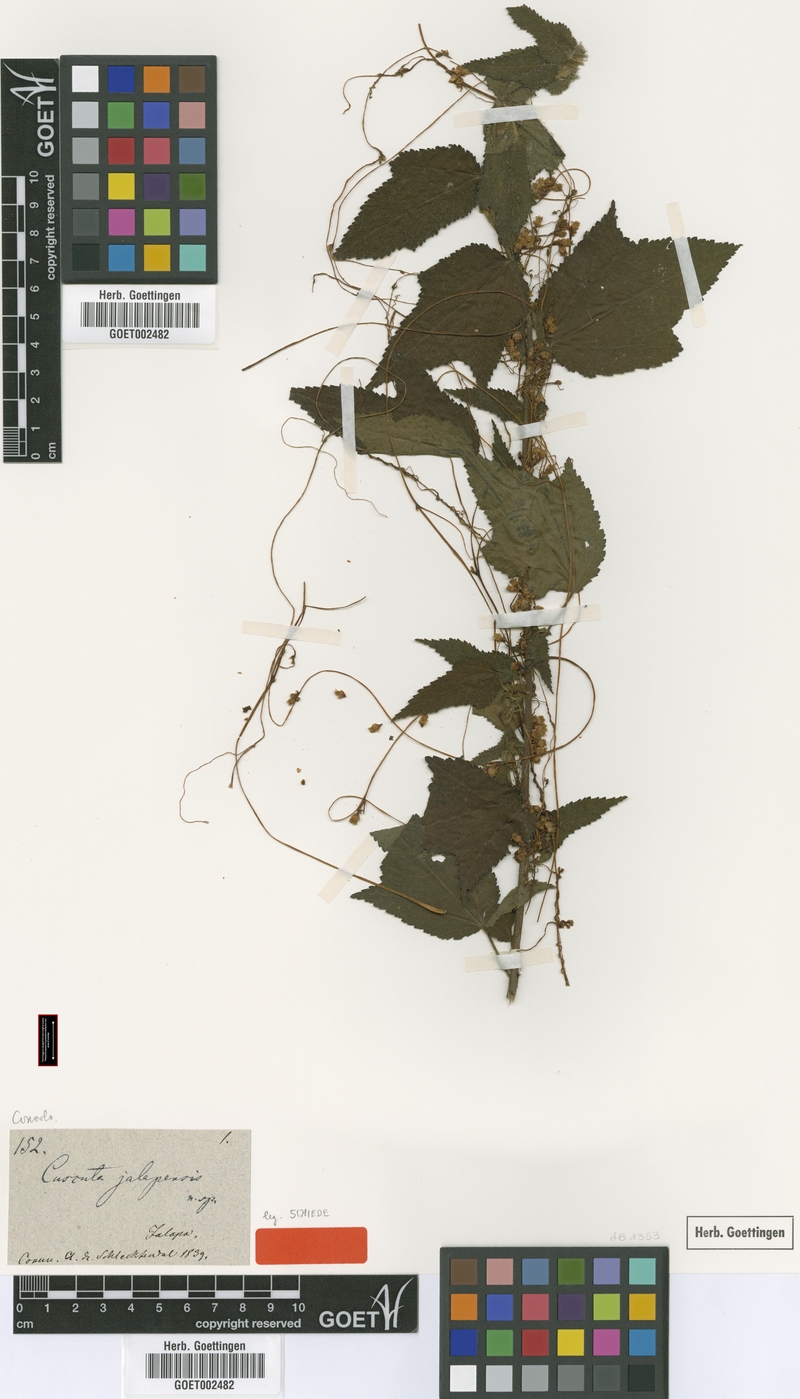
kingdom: Plantae
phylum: Tracheophyta
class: Magnoliopsida
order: Solanales
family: Convolvulaceae
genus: Cuscuta
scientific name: Cuscuta jalapensis
